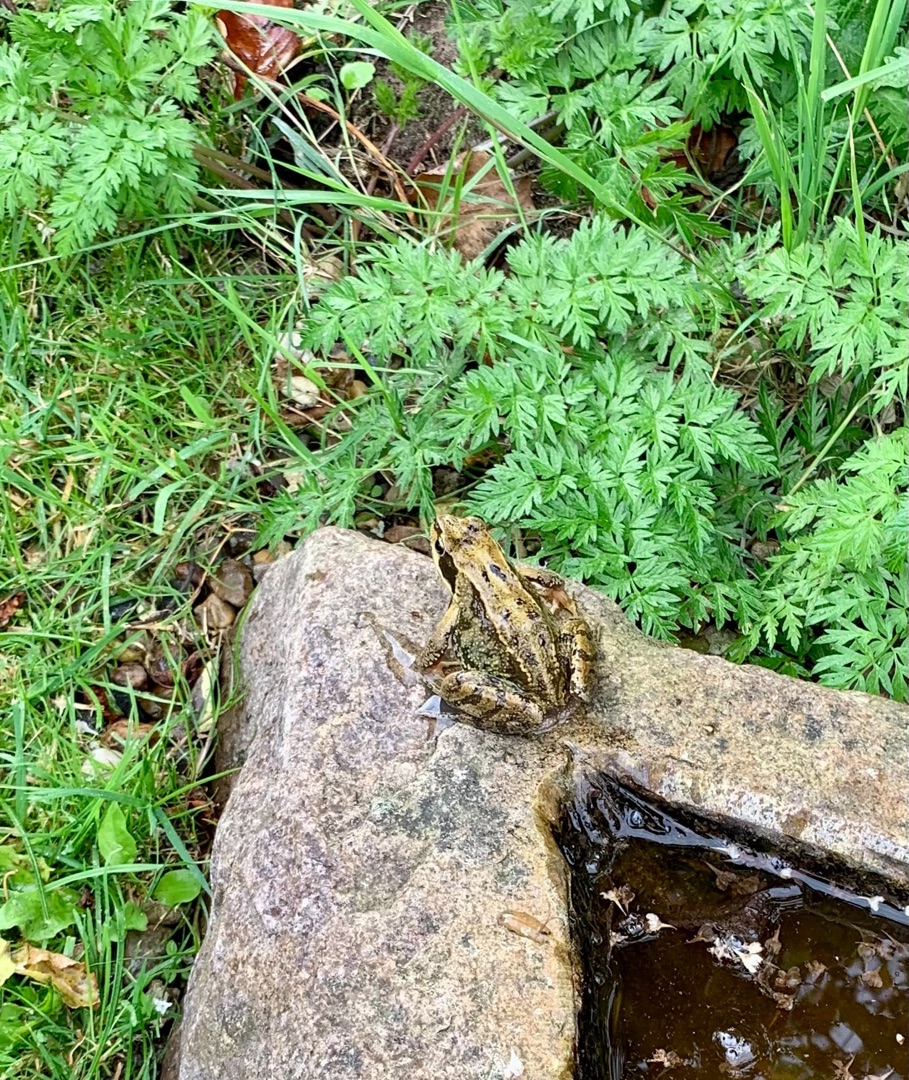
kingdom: Animalia
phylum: Chordata
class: Amphibia
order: Anura
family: Ranidae
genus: Rana
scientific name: Rana temporaria
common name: Butsnudet frø
